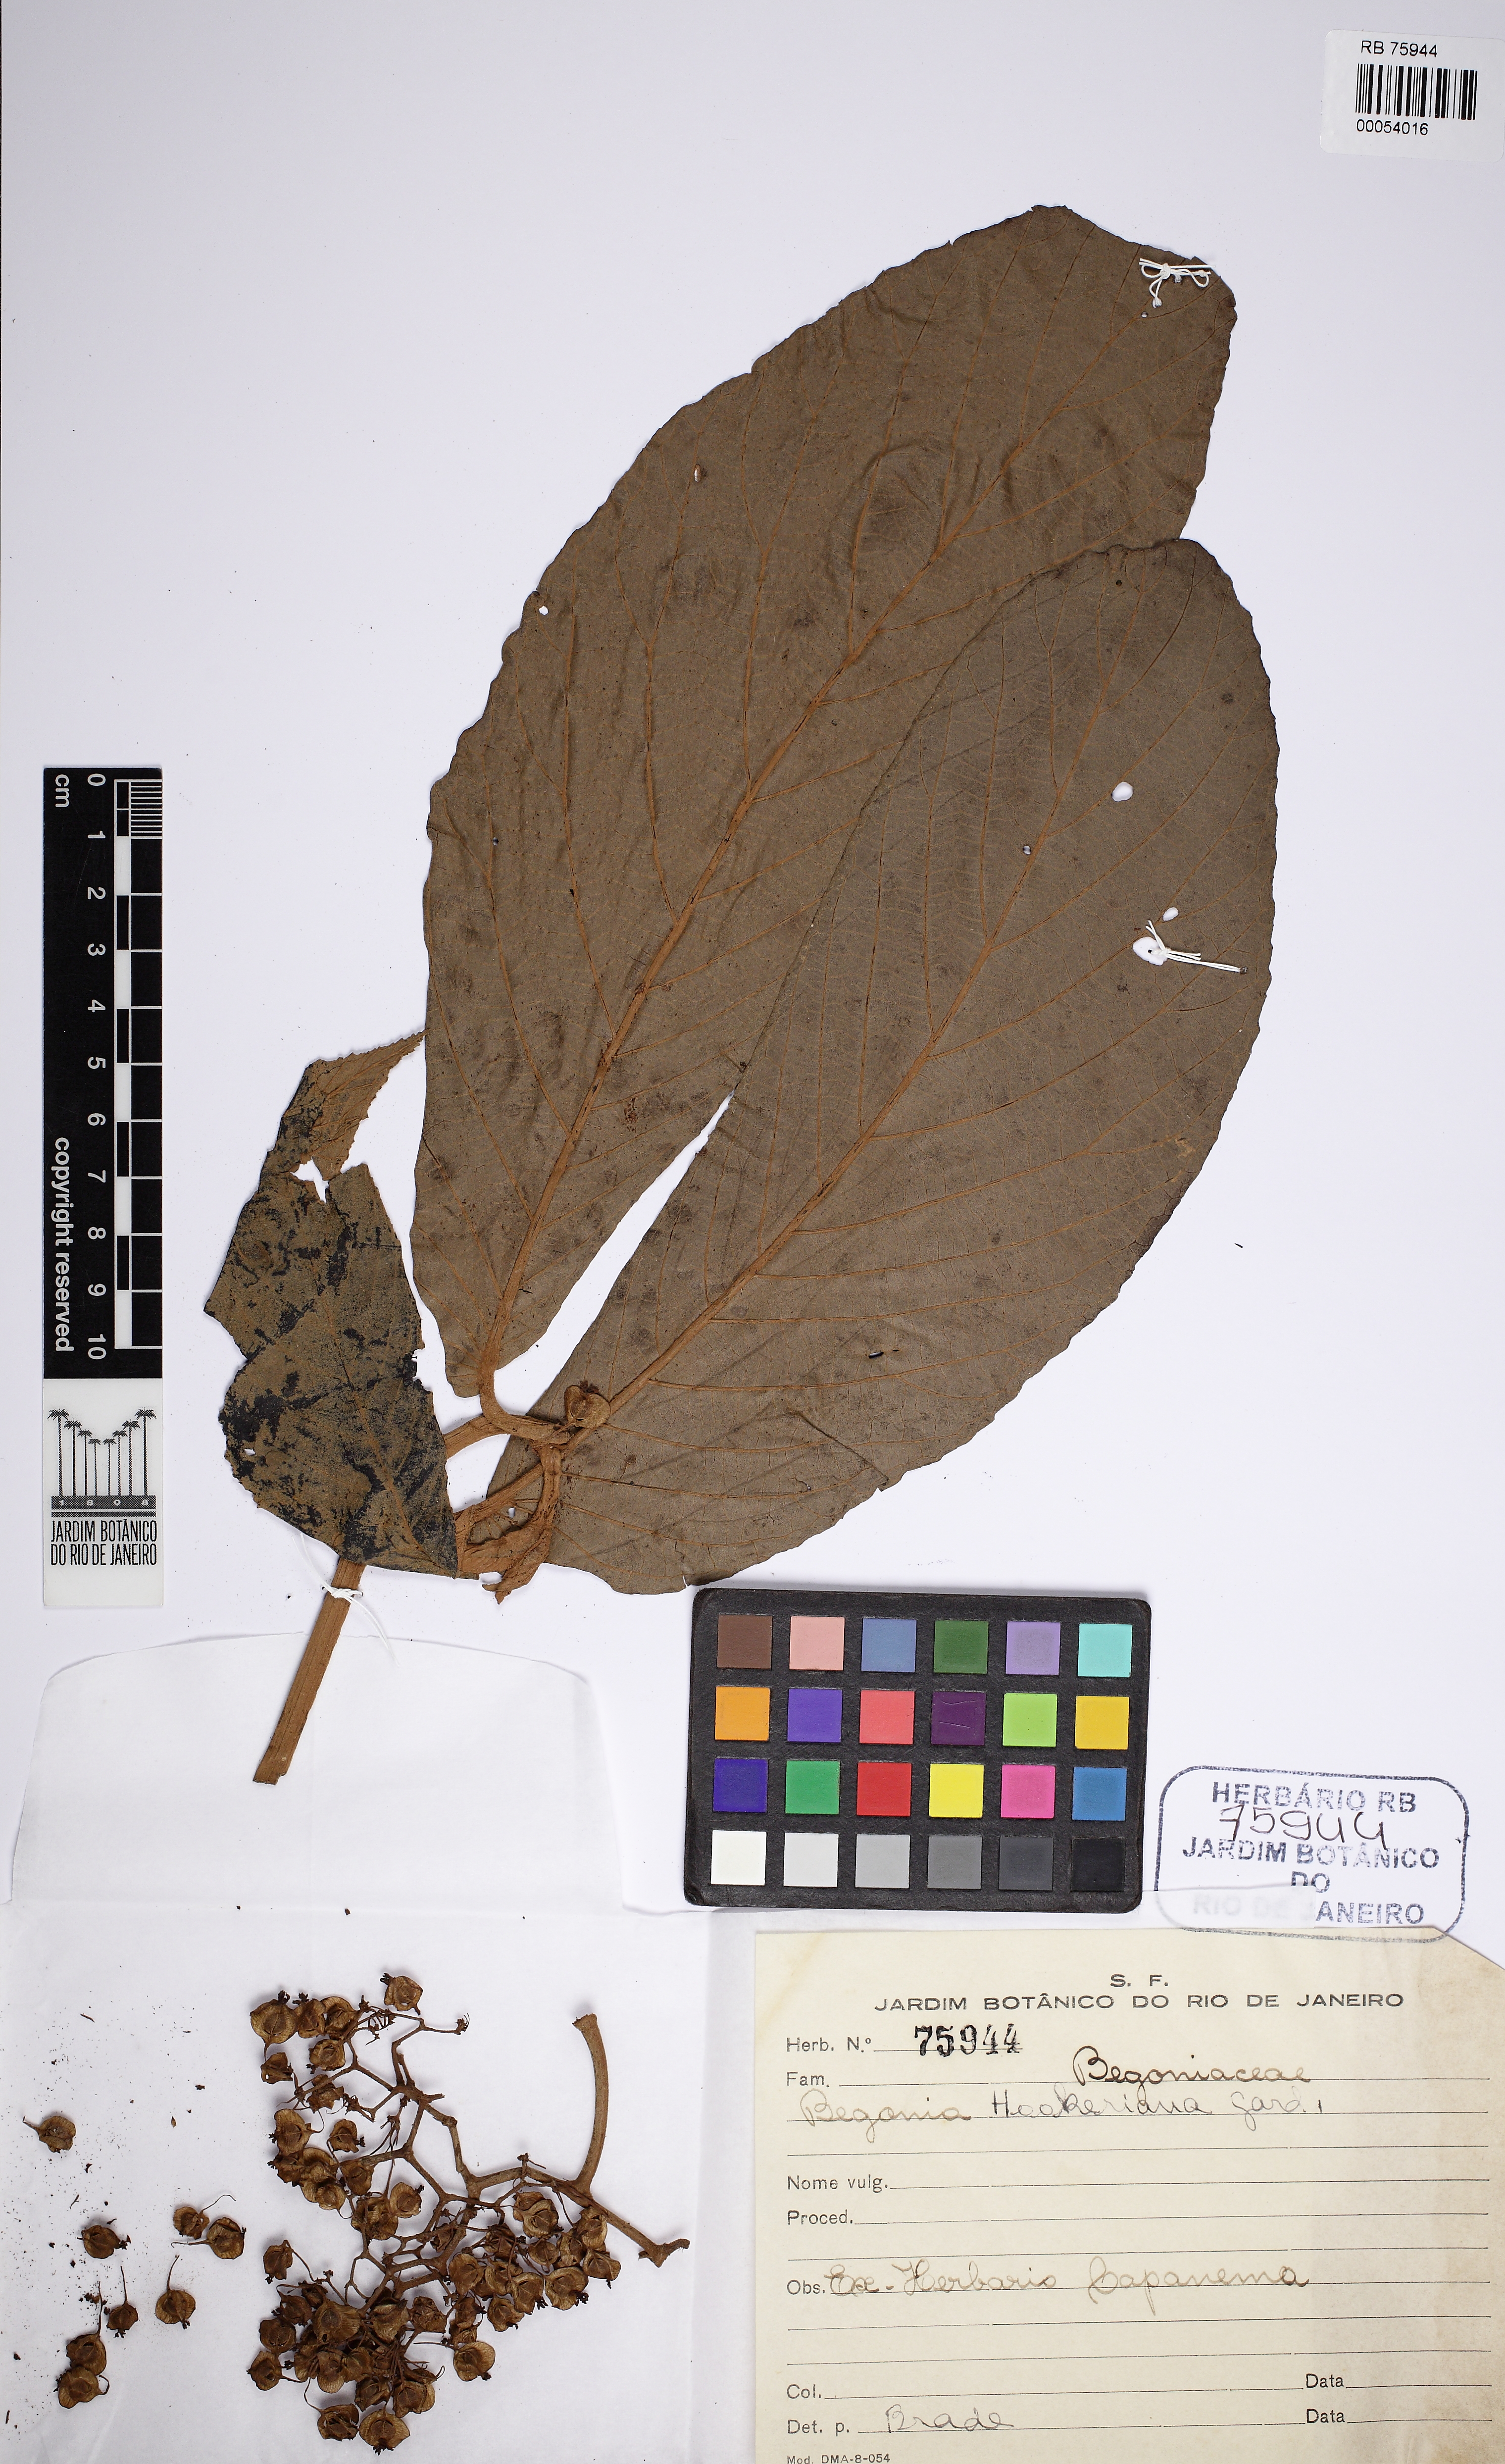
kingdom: Plantae
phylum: Tracheophyta
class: Magnoliopsida
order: Cucurbitales
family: Begoniaceae
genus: Begonia
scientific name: Begonia hookeriana
